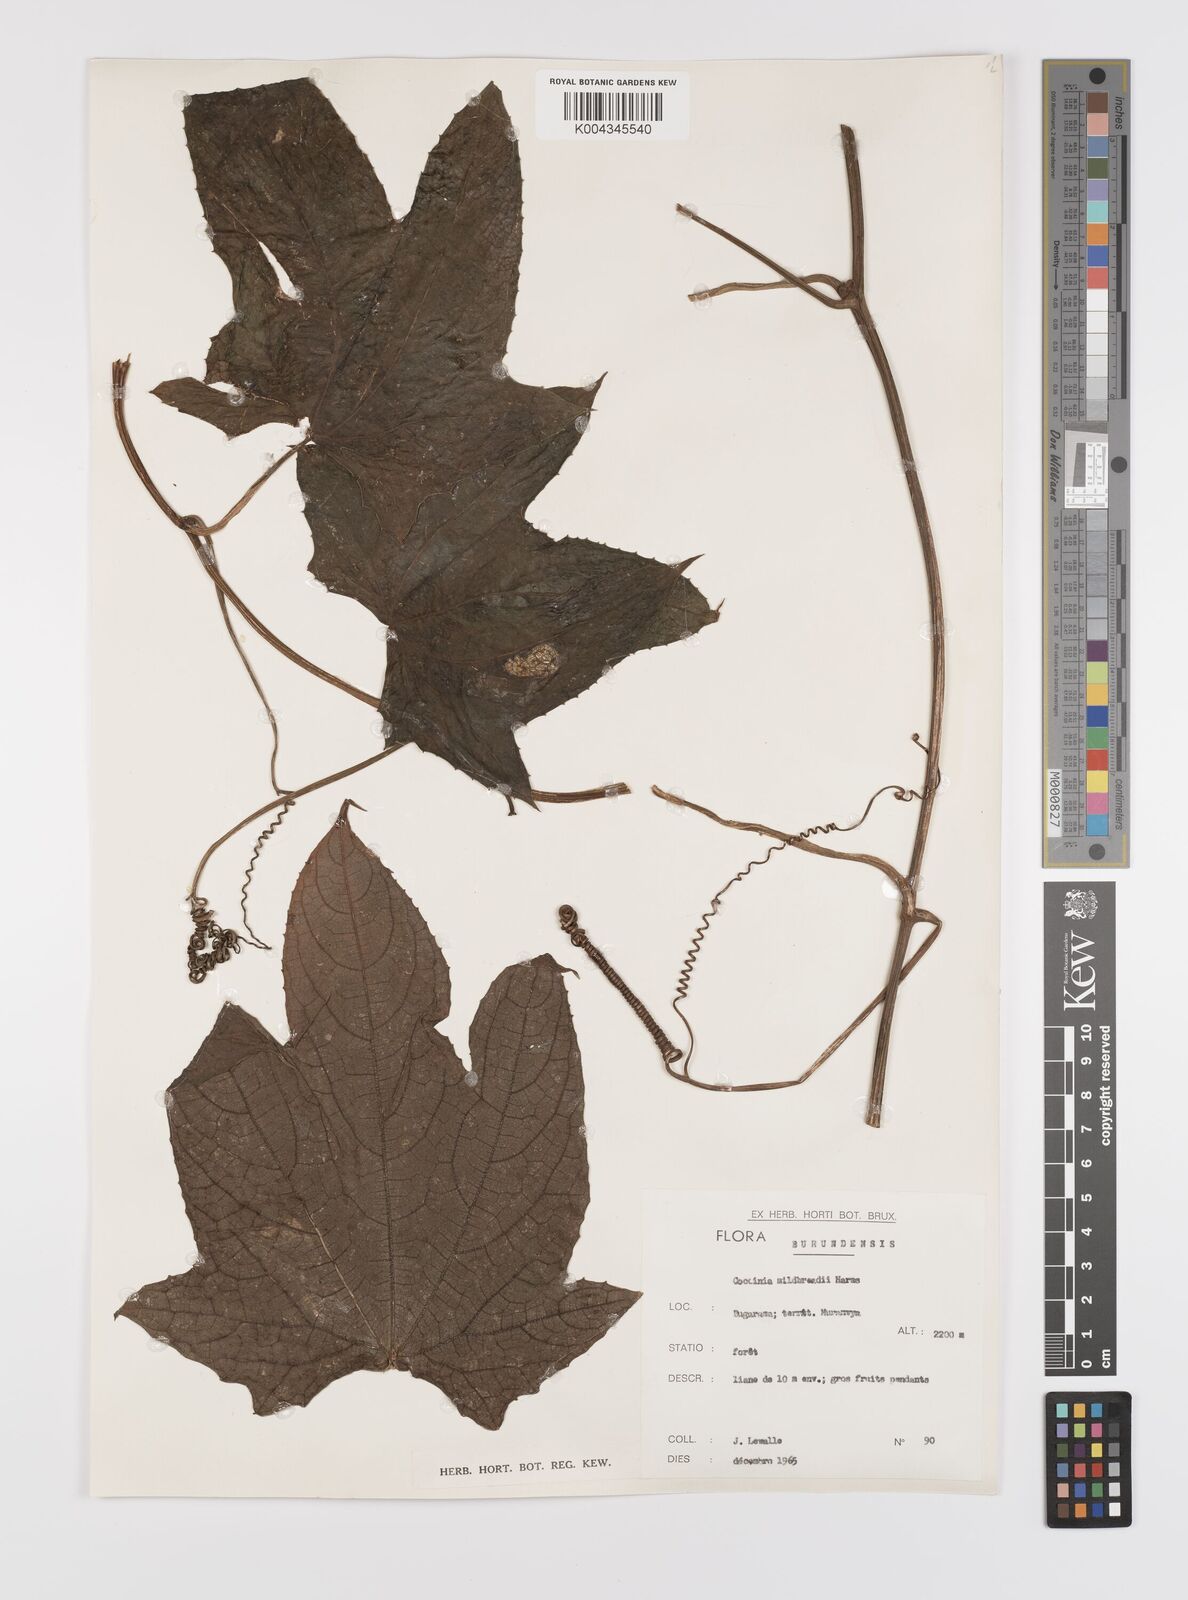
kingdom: Plantae
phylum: Tracheophyta
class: Magnoliopsida
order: Cucurbitales
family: Cucurbitaceae
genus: Coccinia
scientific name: Coccinia mildbraedii
